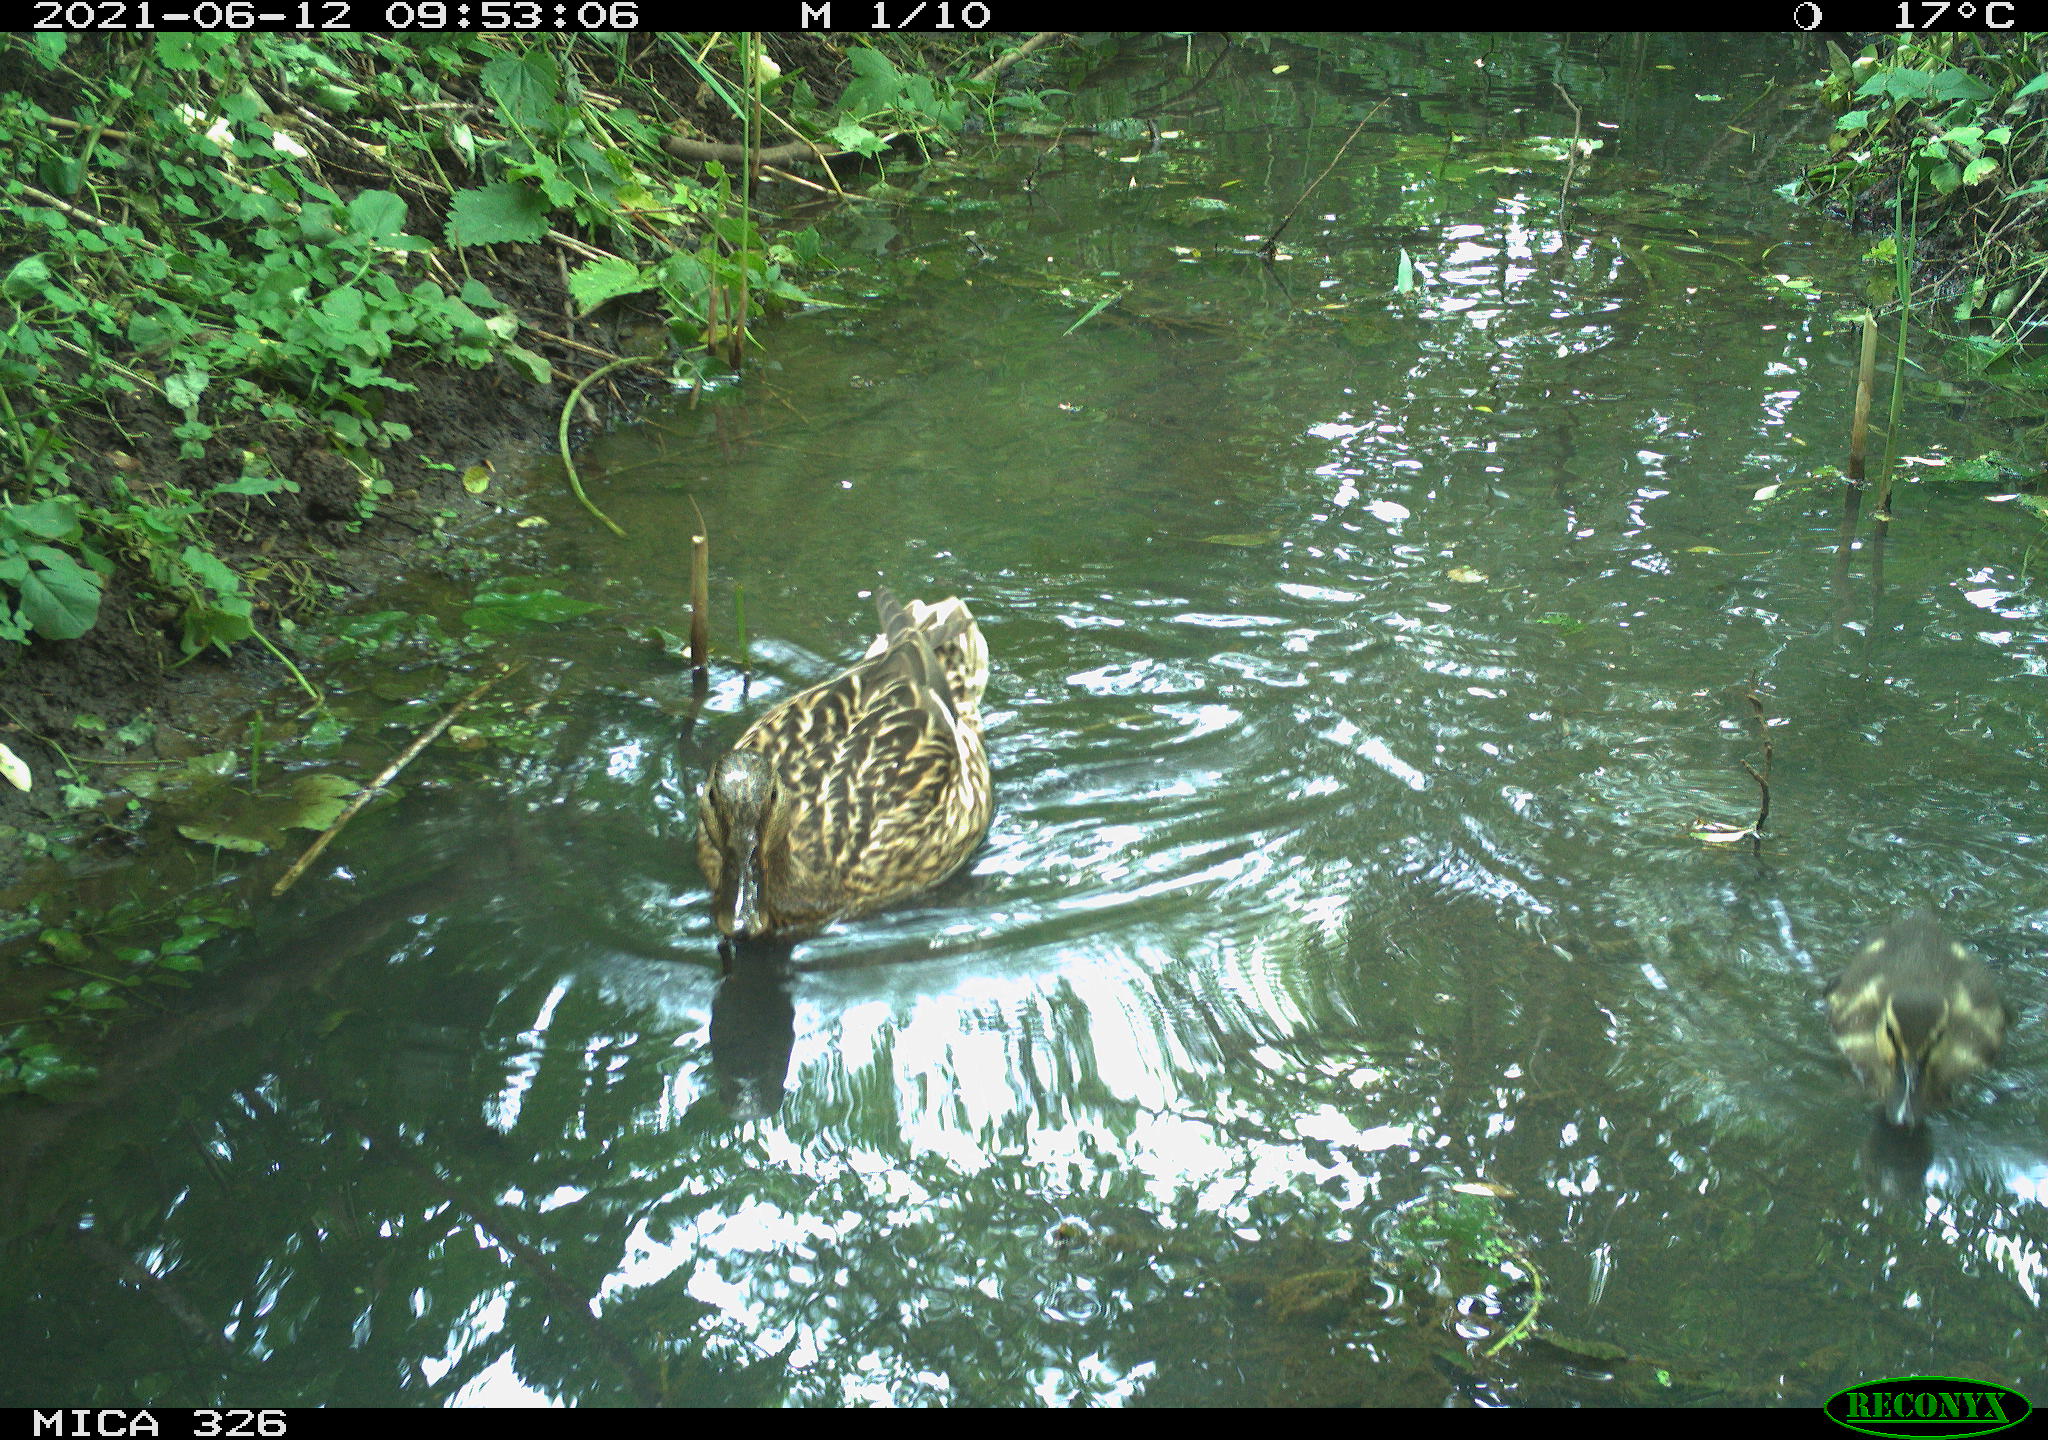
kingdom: Animalia
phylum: Chordata
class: Aves
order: Anseriformes
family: Anatidae
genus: Anas
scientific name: Anas platyrhynchos
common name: Mallard
